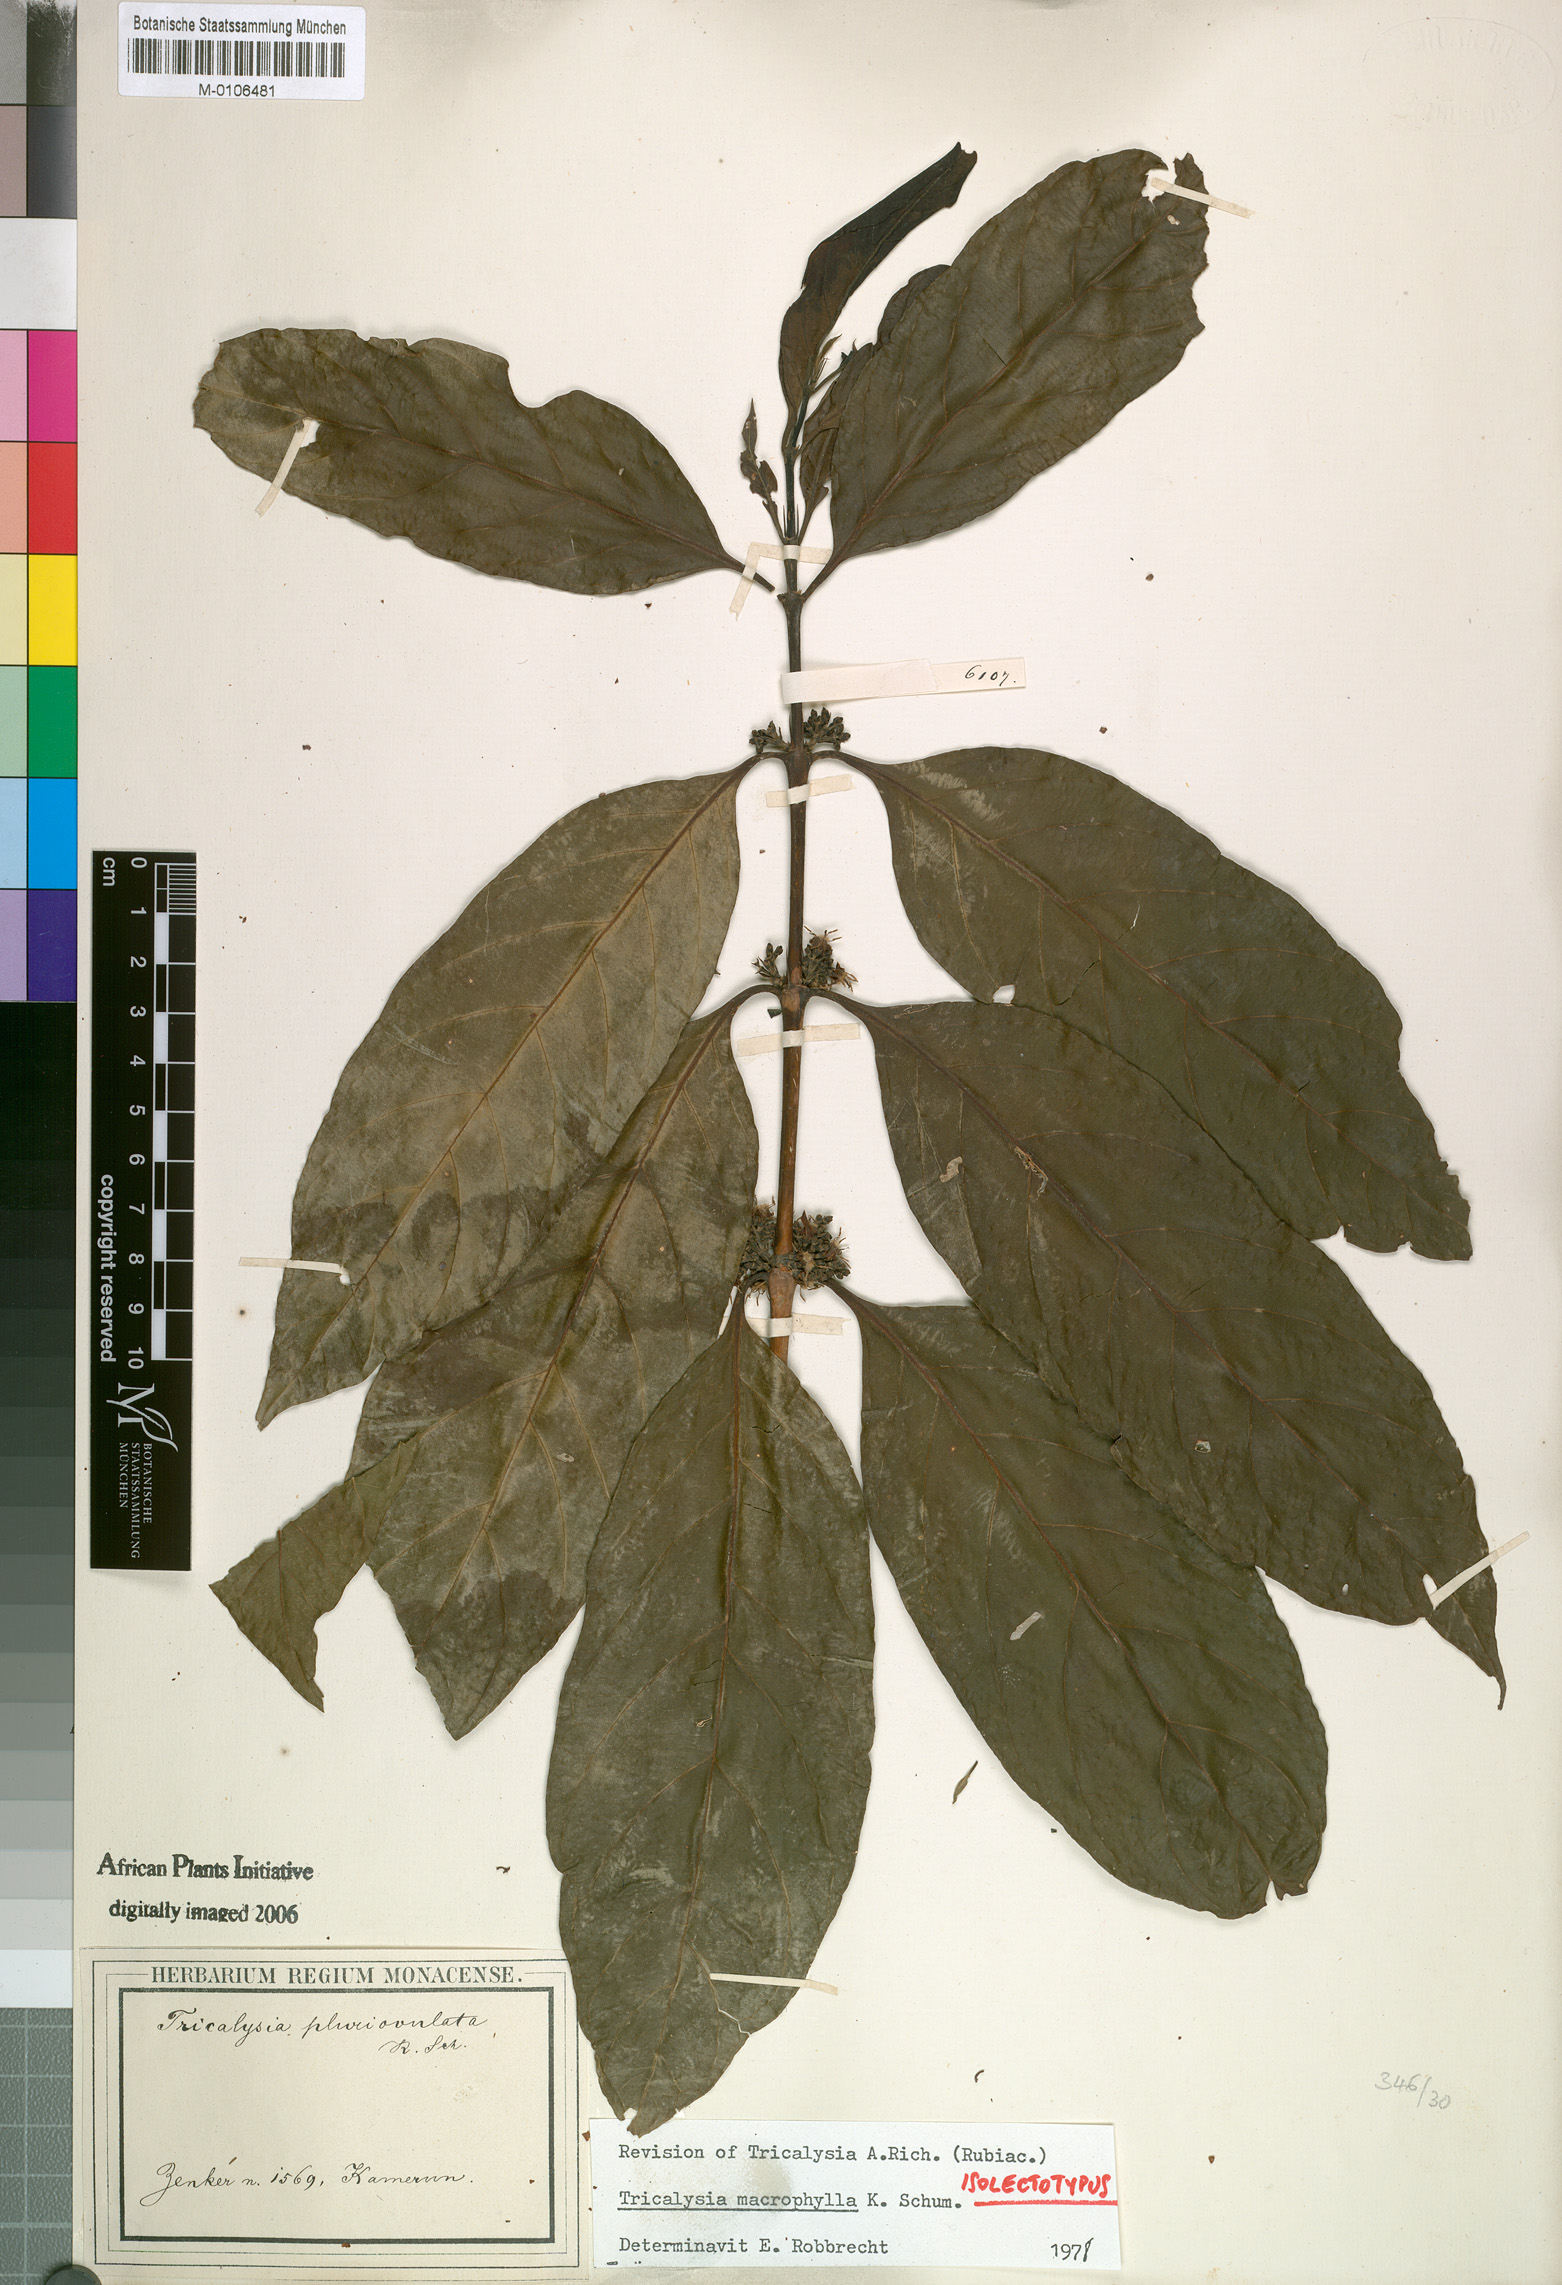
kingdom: Plantae
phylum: Tracheophyta
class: Magnoliopsida
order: Gentianales
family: Rubiaceae
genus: Empogona
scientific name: Empogona macrophylla
